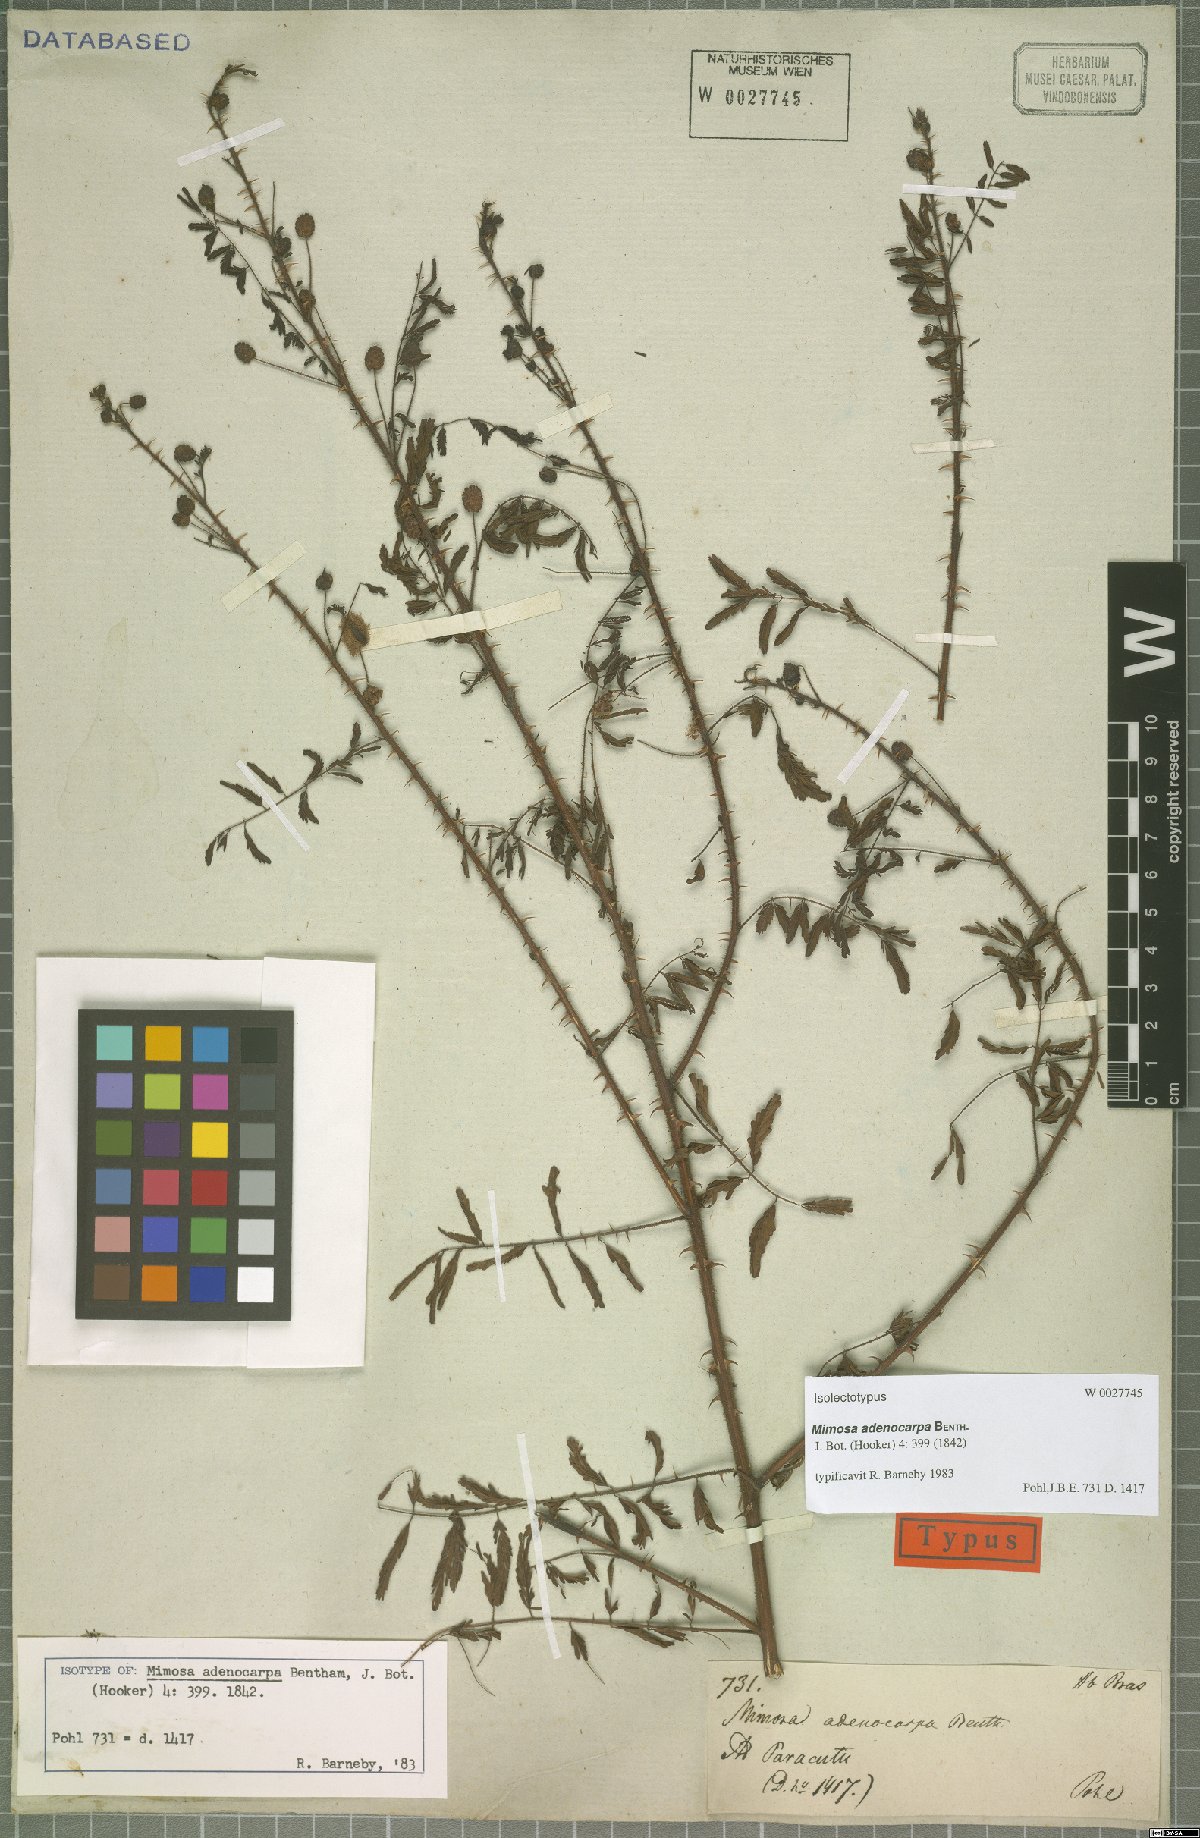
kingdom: Plantae
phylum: Tracheophyta
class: Magnoliopsida
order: Fabales
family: Fabaceae
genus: Mimosa
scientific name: Mimosa adenocarpa
